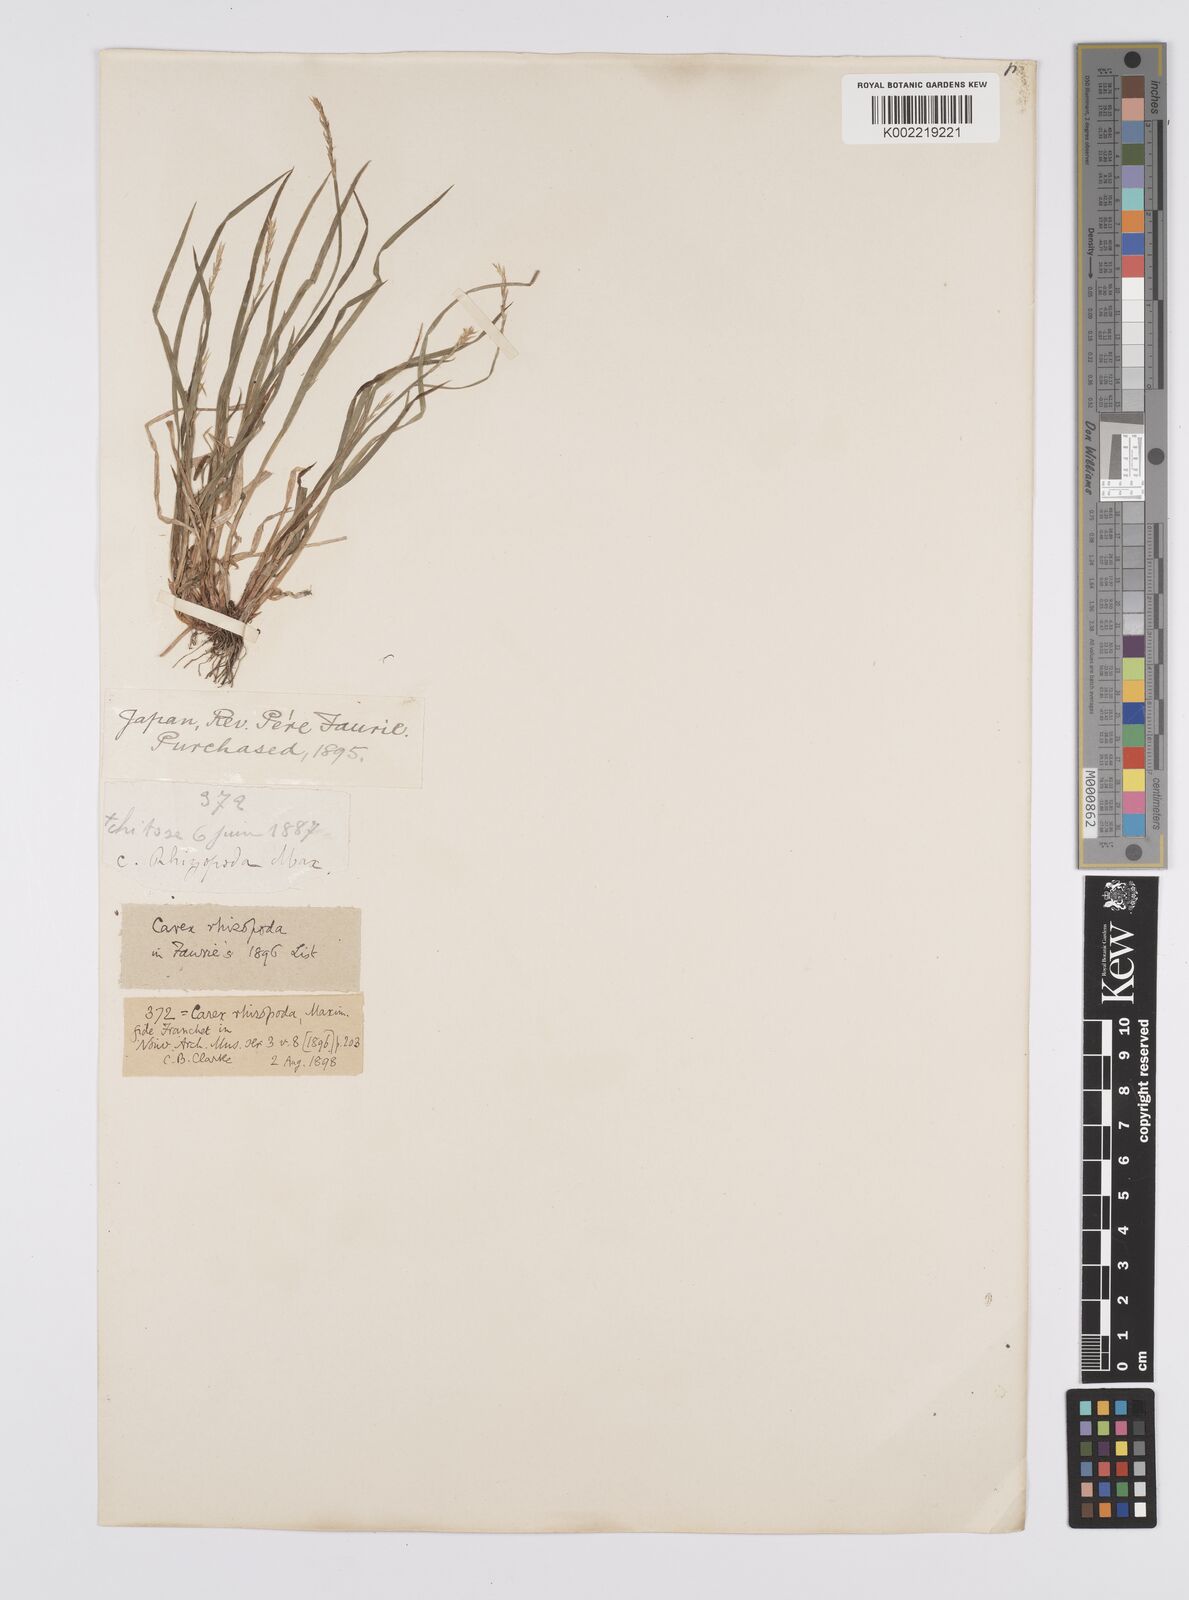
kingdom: Plantae
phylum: Tracheophyta
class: Liliopsida
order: Poales
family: Cyperaceae
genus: Carex
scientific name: Carex rhizopoda
